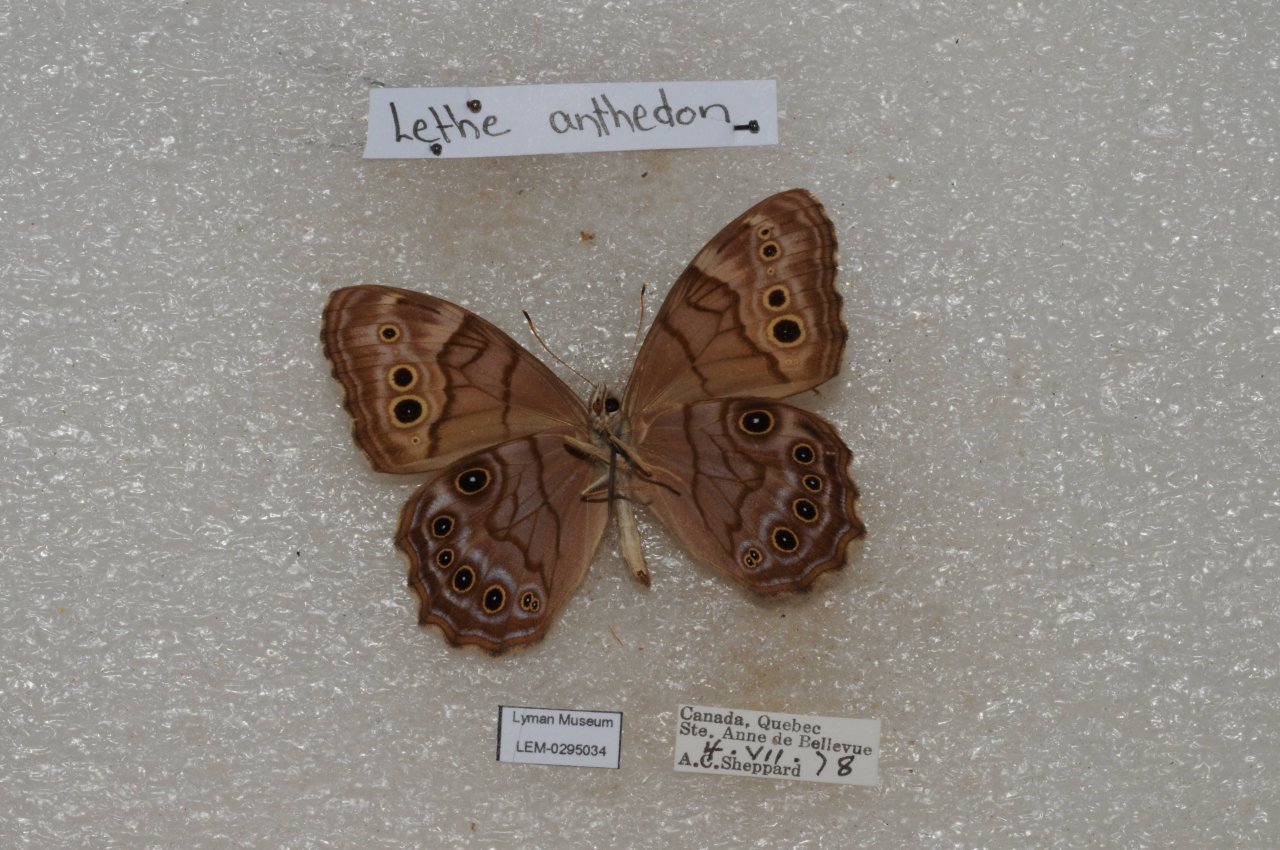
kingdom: Animalia
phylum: Arthropoda
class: Insecta
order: Lepidoptera
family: Nymphalidae
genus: Lethe
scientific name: Lethe anthedon
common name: Northern Pearly-Eye
